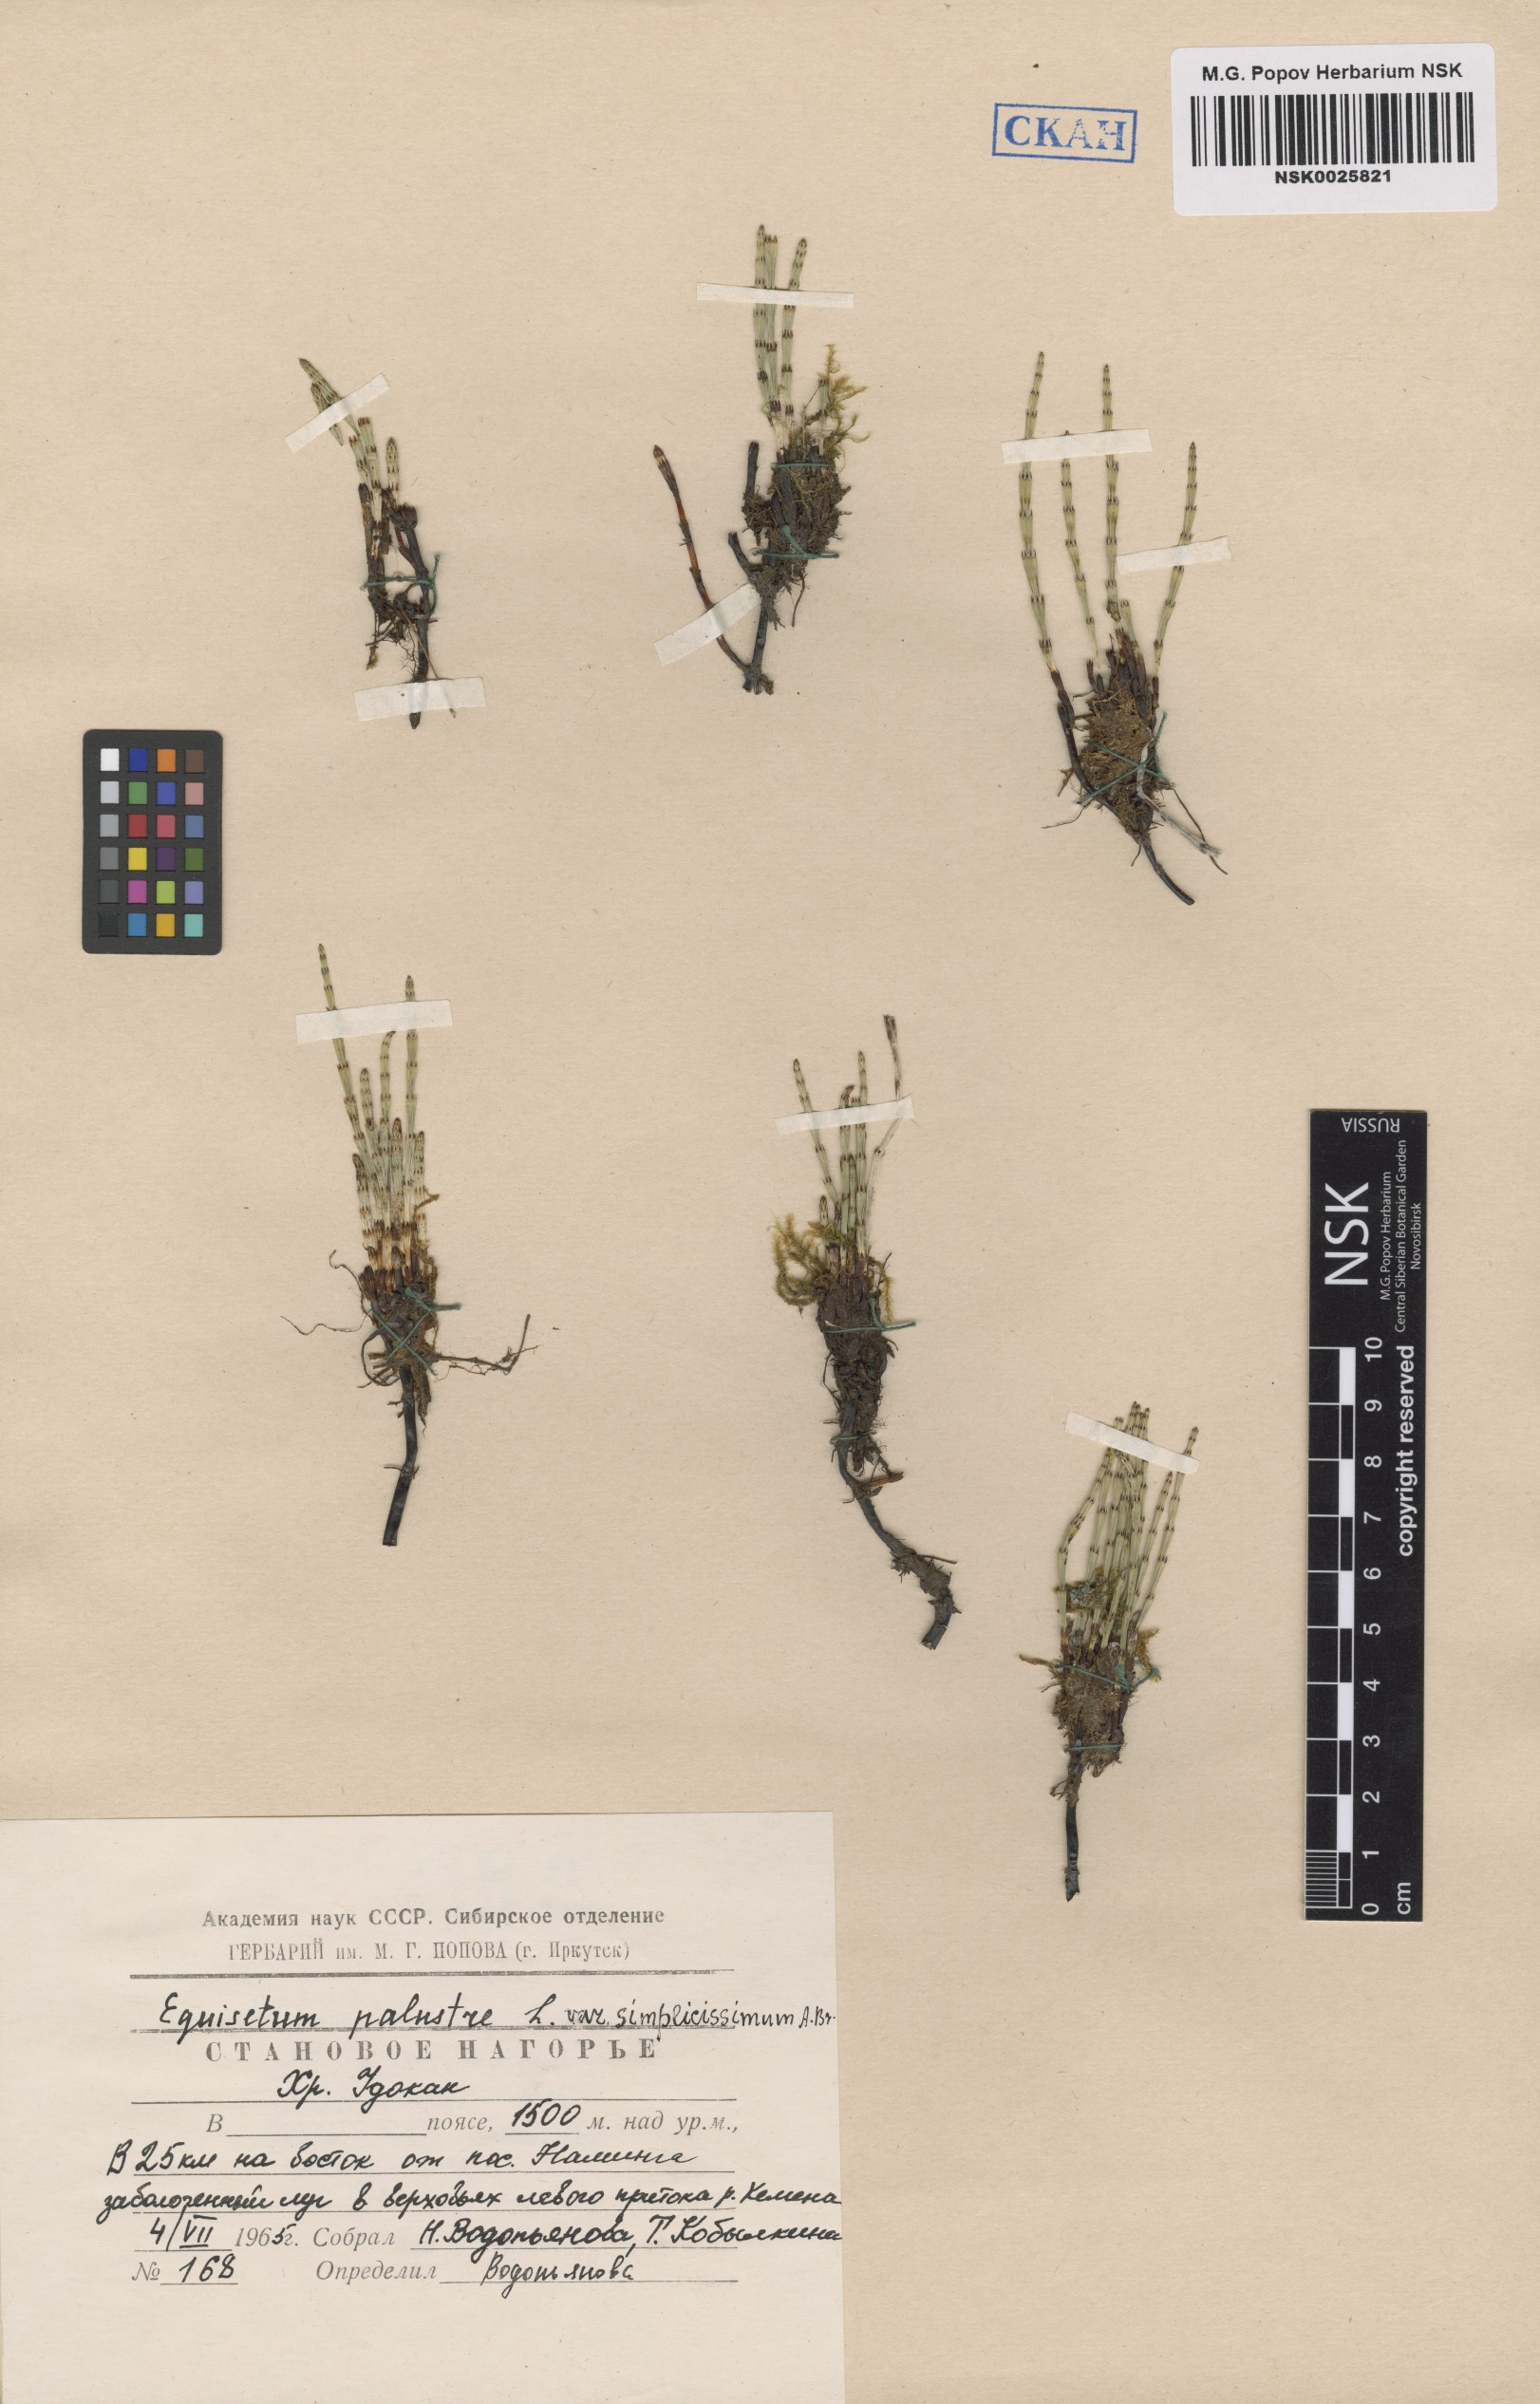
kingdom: Plantae
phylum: Tracheophyta
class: Polypodiopsida
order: Equisetales
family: Equisetaceae
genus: Equisetum
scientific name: Equisetum palustre
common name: Marsh horsetail
